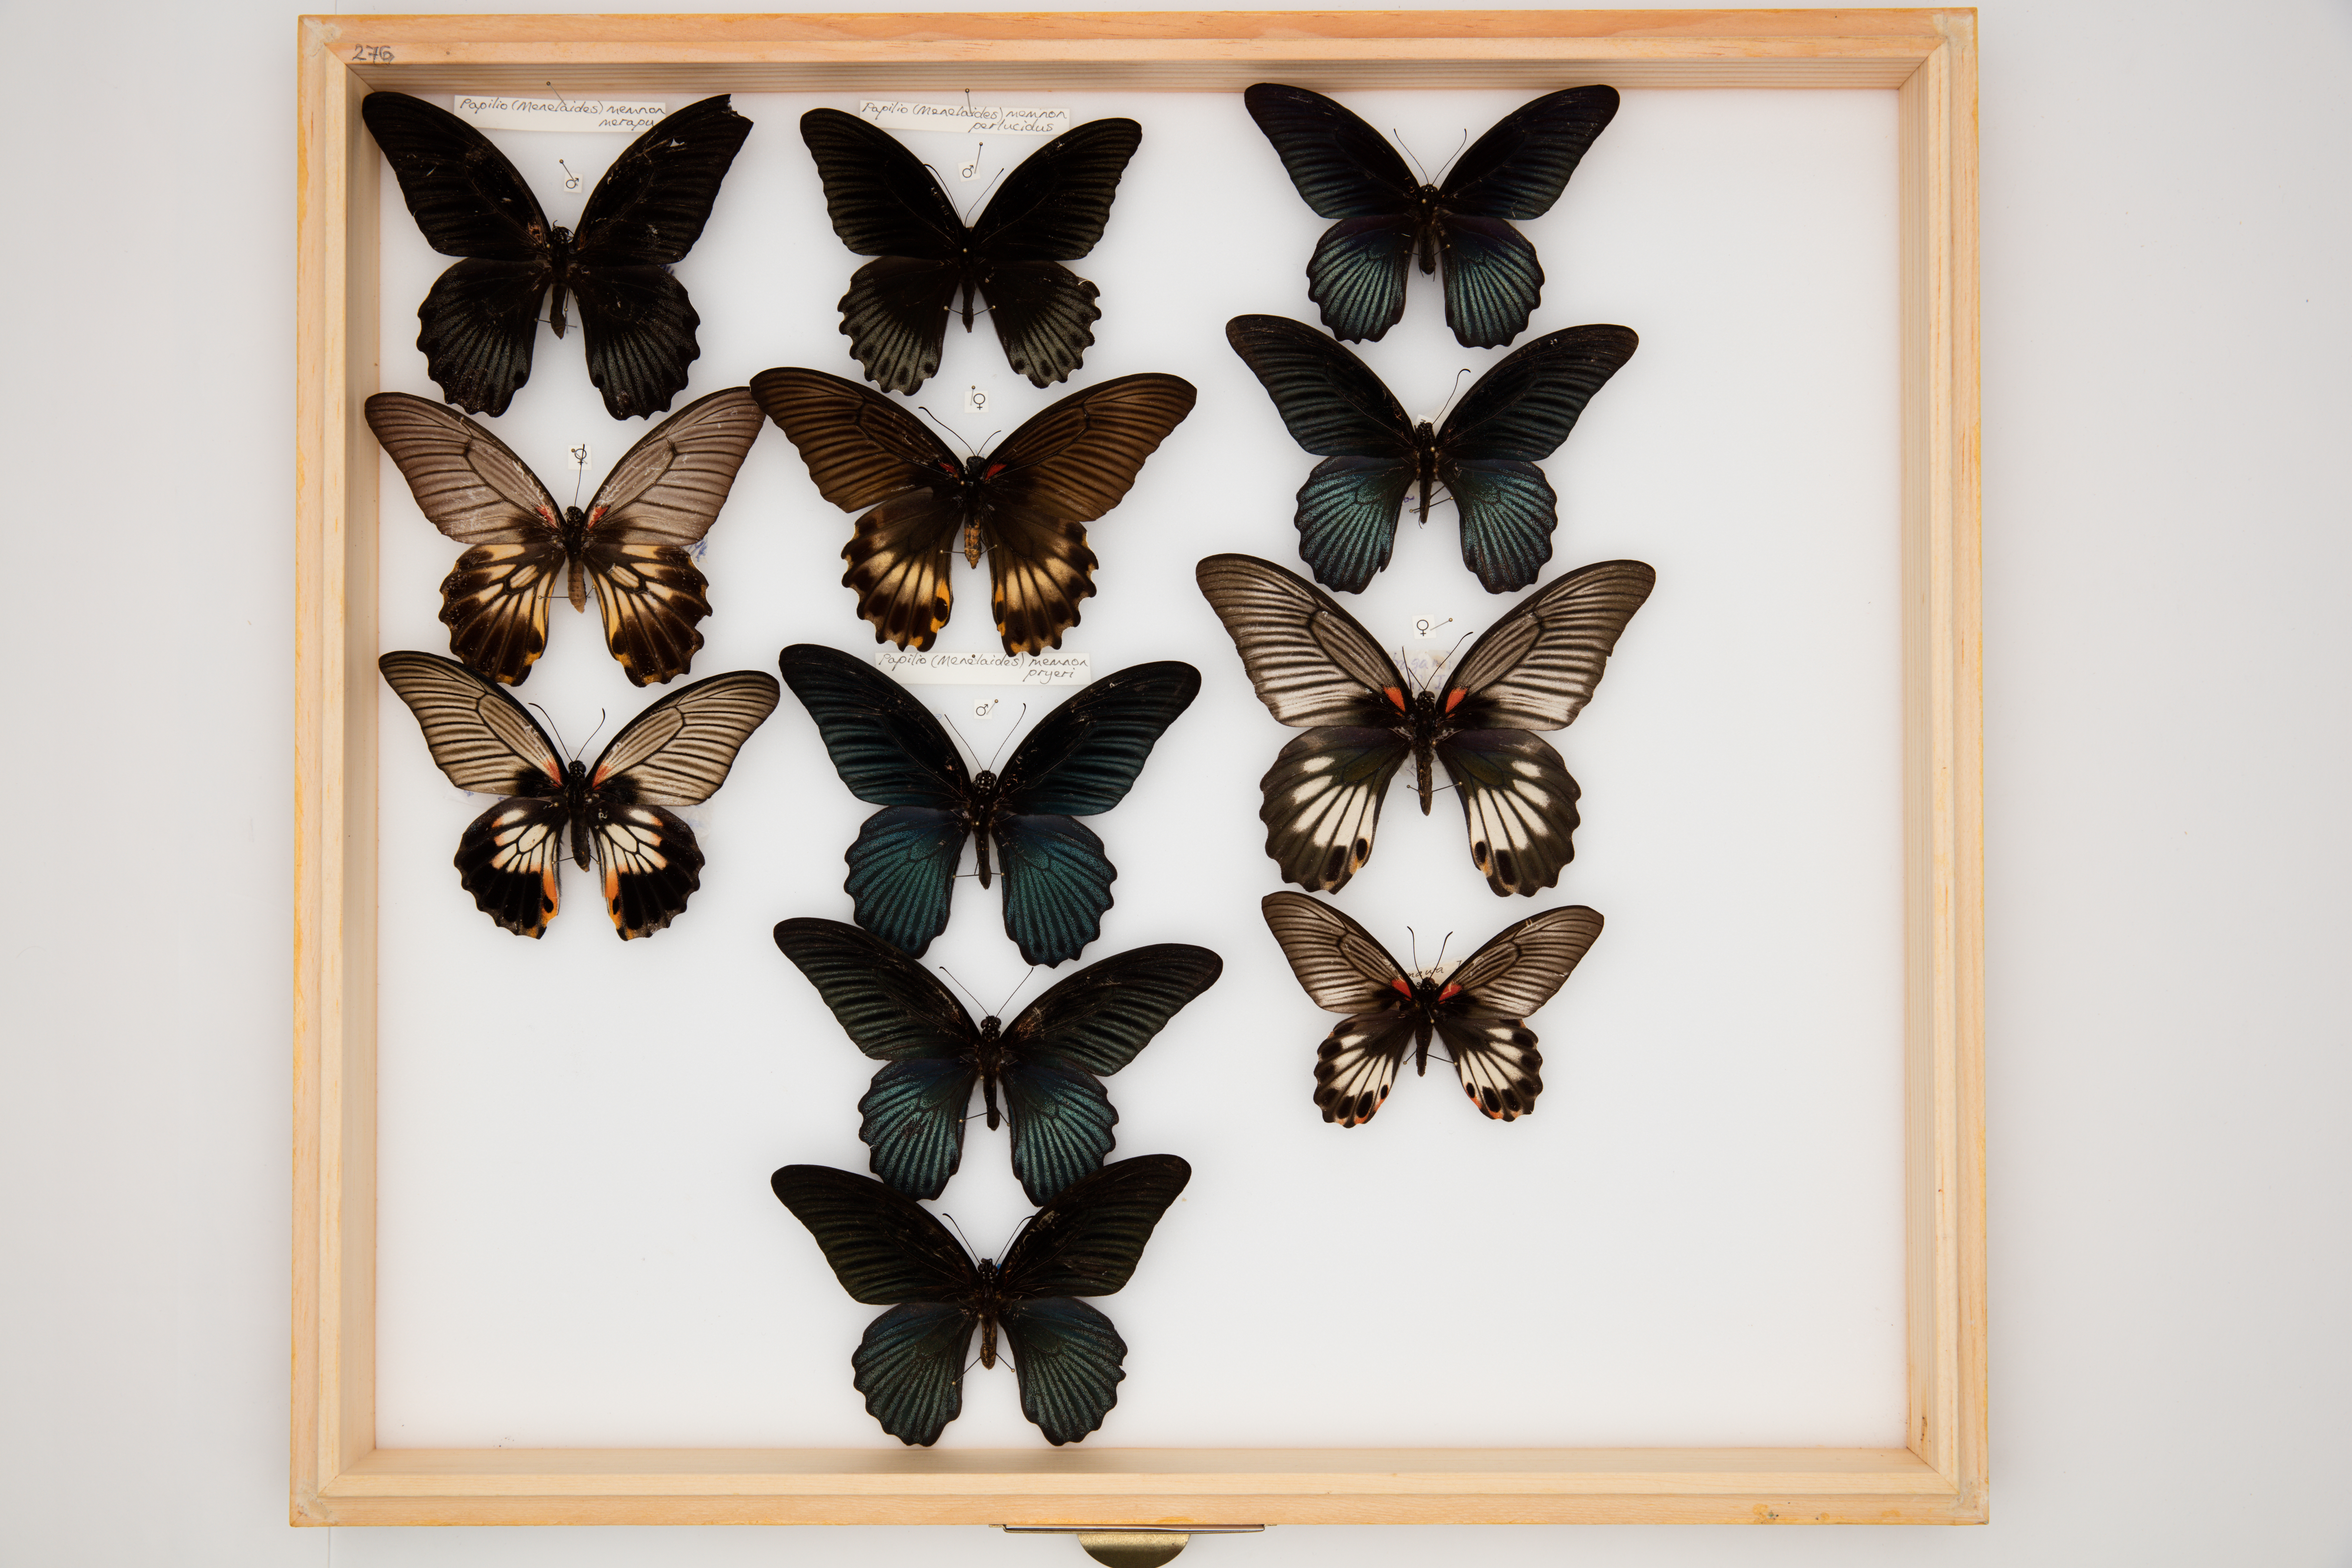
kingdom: Animalia
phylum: Arthropoda
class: Insecta
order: Lepidoptera
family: Papilionidae
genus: Papilio
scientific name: Papilio memnon
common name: Great mormon
